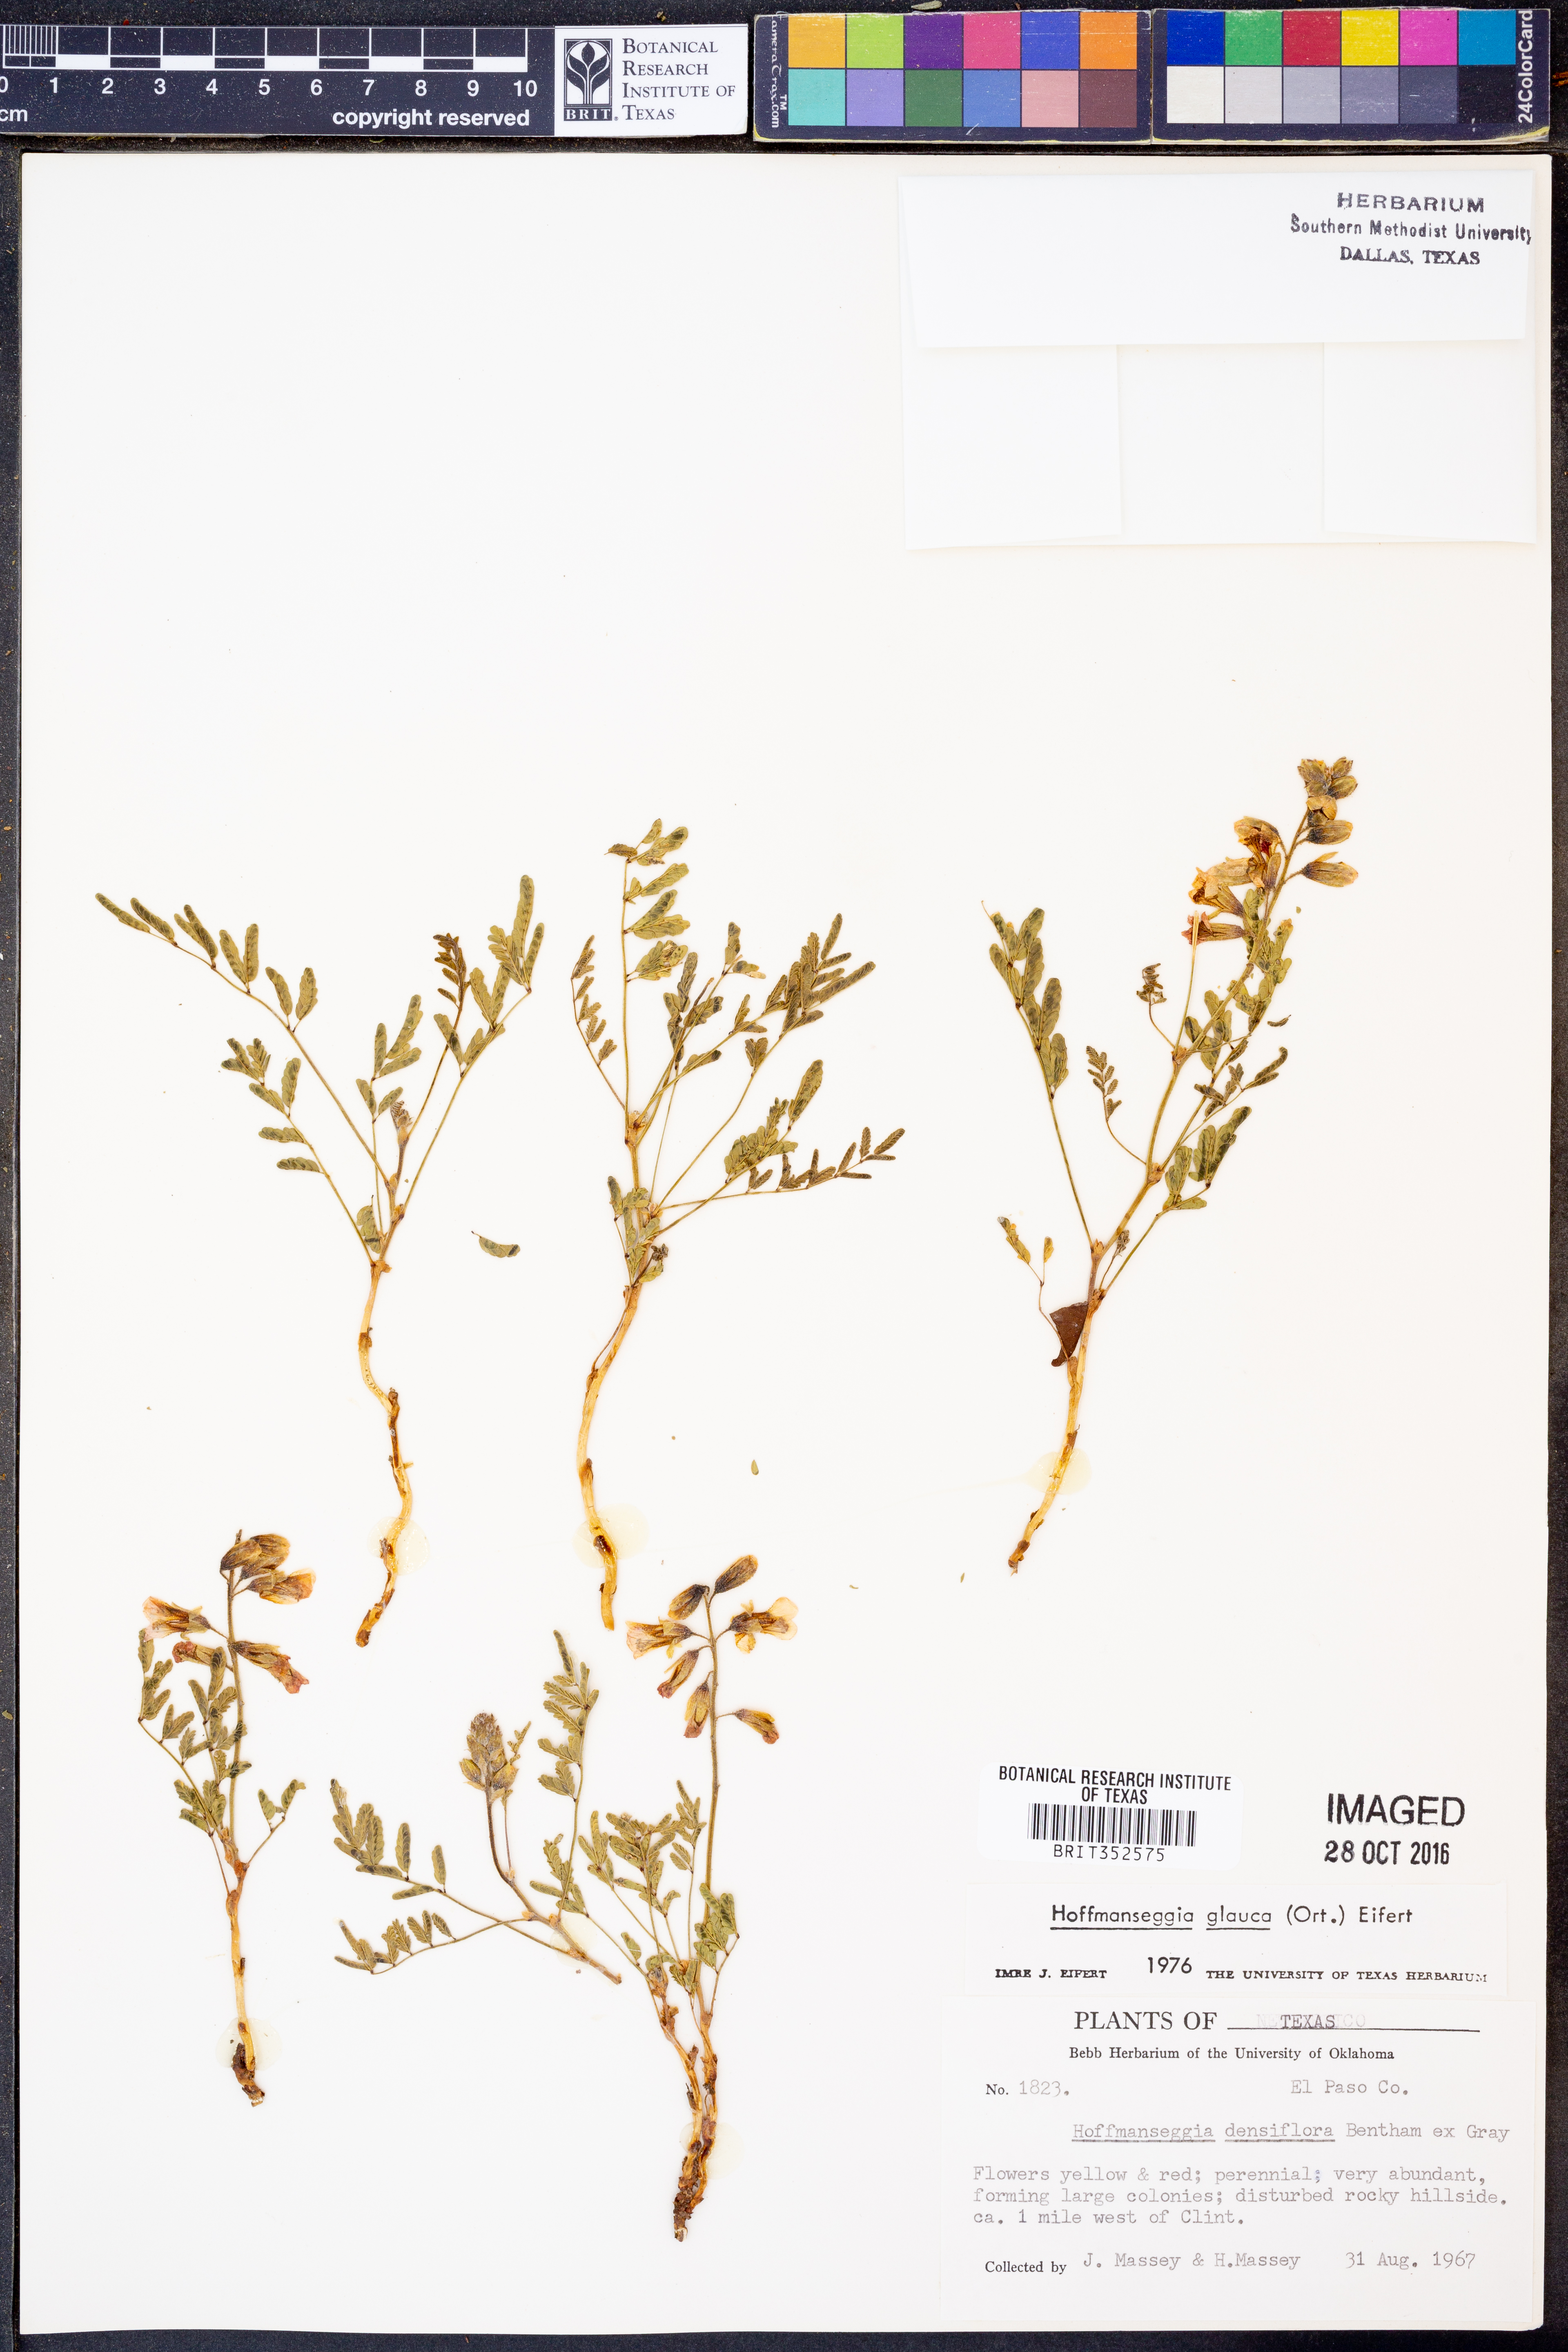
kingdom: Plantae
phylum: Tracheophyta
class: Magnoliopsida
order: Fabales
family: Fabaceae
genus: Hoffmannseggia
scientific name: Hoffmannseggia glauca
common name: Pignut
